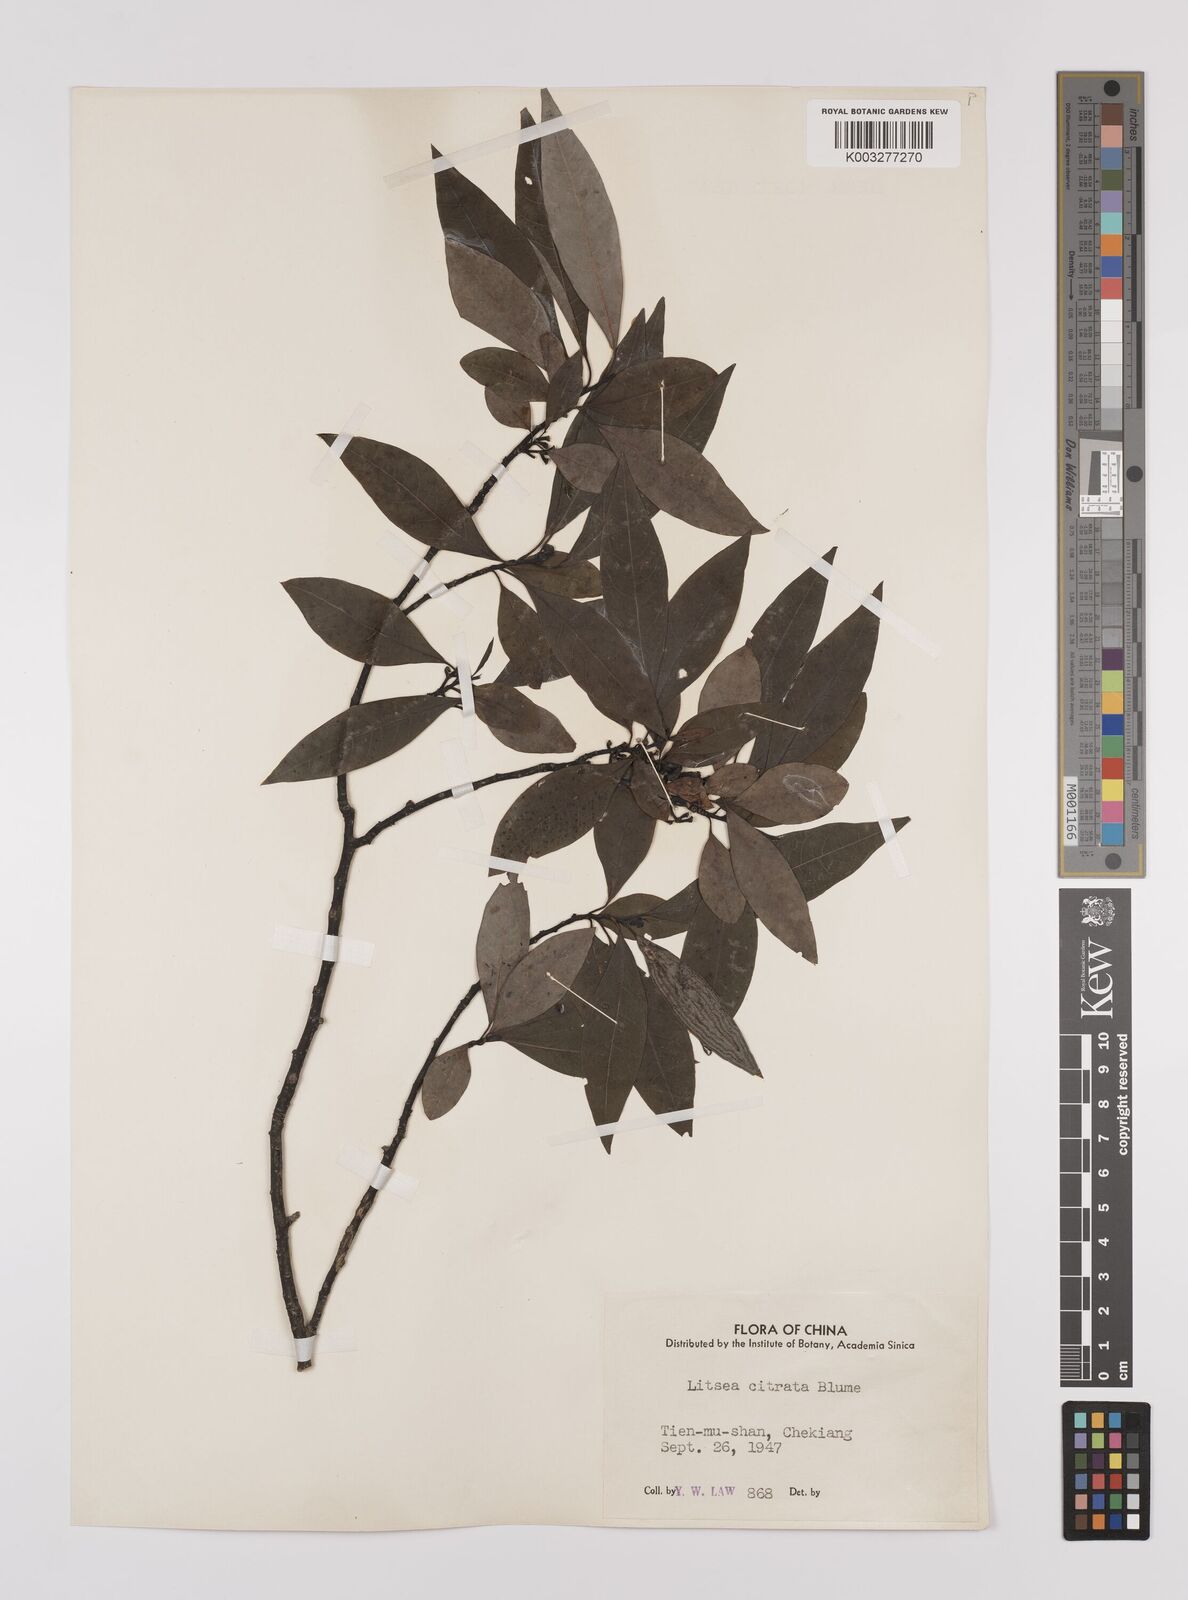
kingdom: Plantae
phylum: Tracheophyta
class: Magnoliopsida
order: Laurales
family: Lauraceae
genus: Litsea
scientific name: Litsea cubeba
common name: Mountain-pepper
